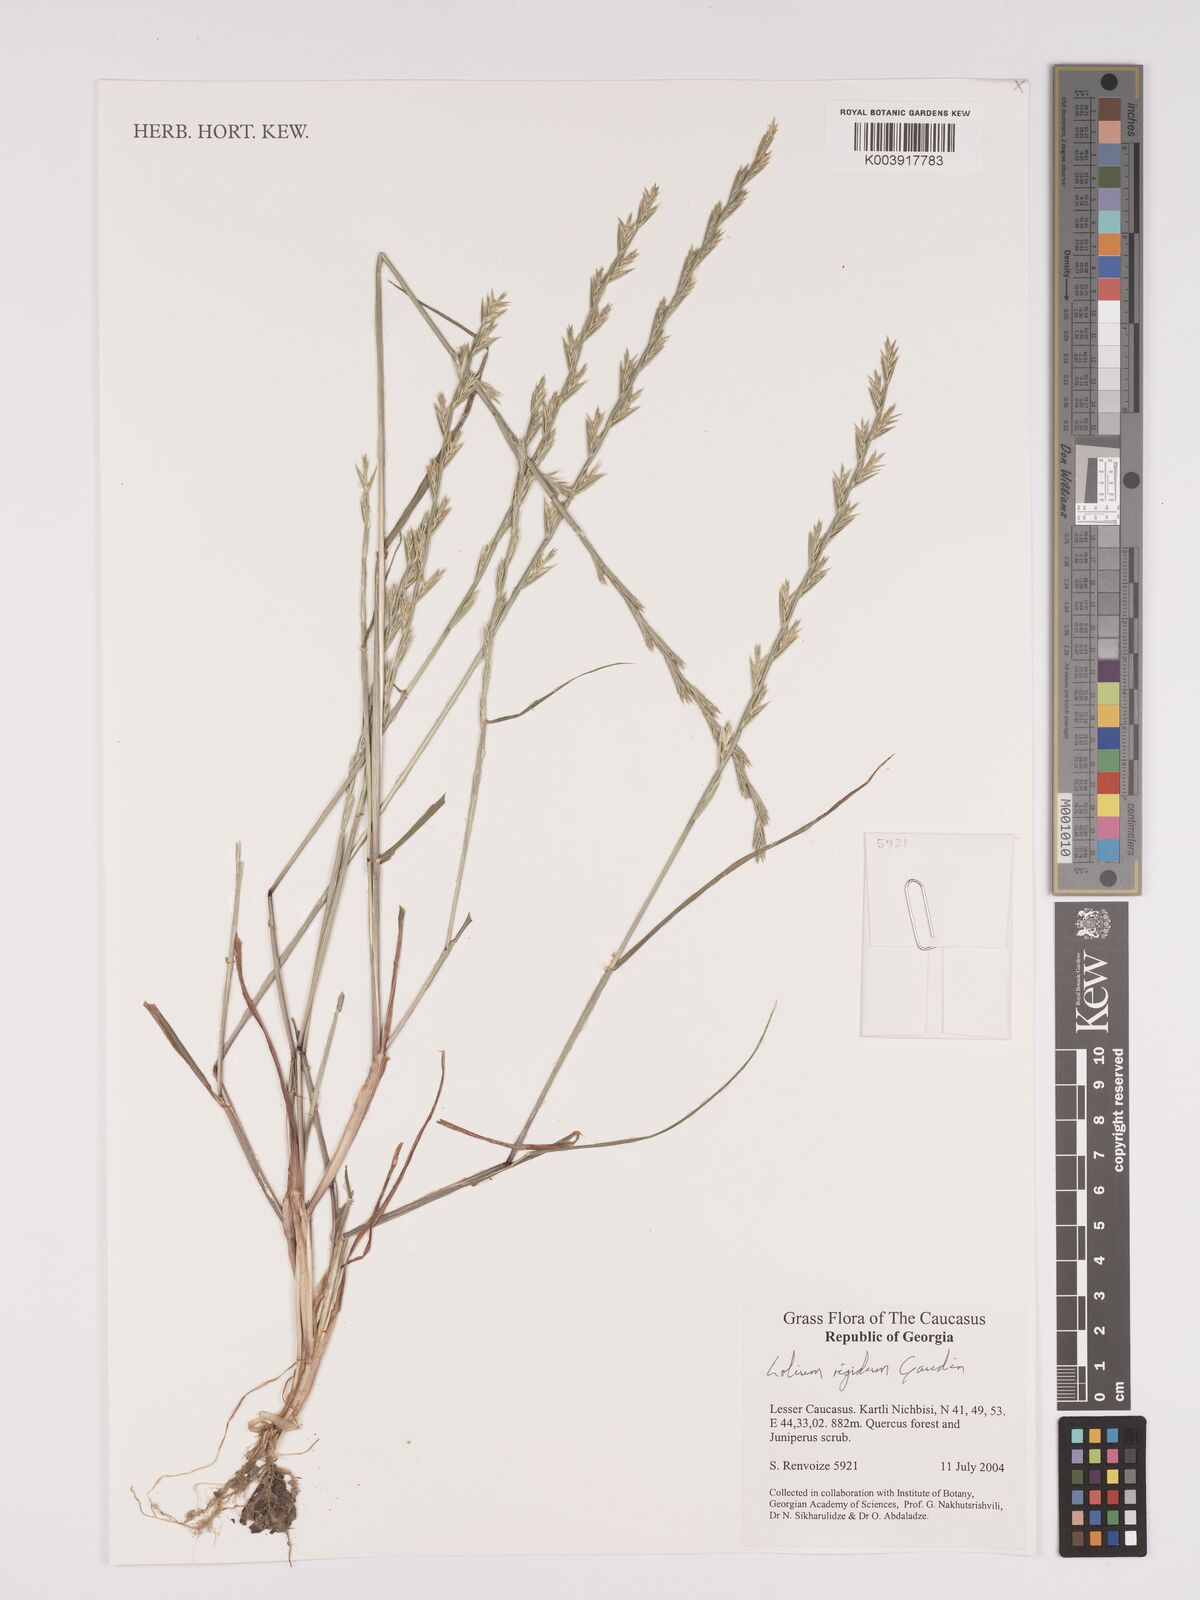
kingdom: Plantae
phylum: Tracheophyta
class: Liliopsida
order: Poales
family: Poaceae
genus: Lolium
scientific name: Lolium rigidum
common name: Wimmera ryegrass
